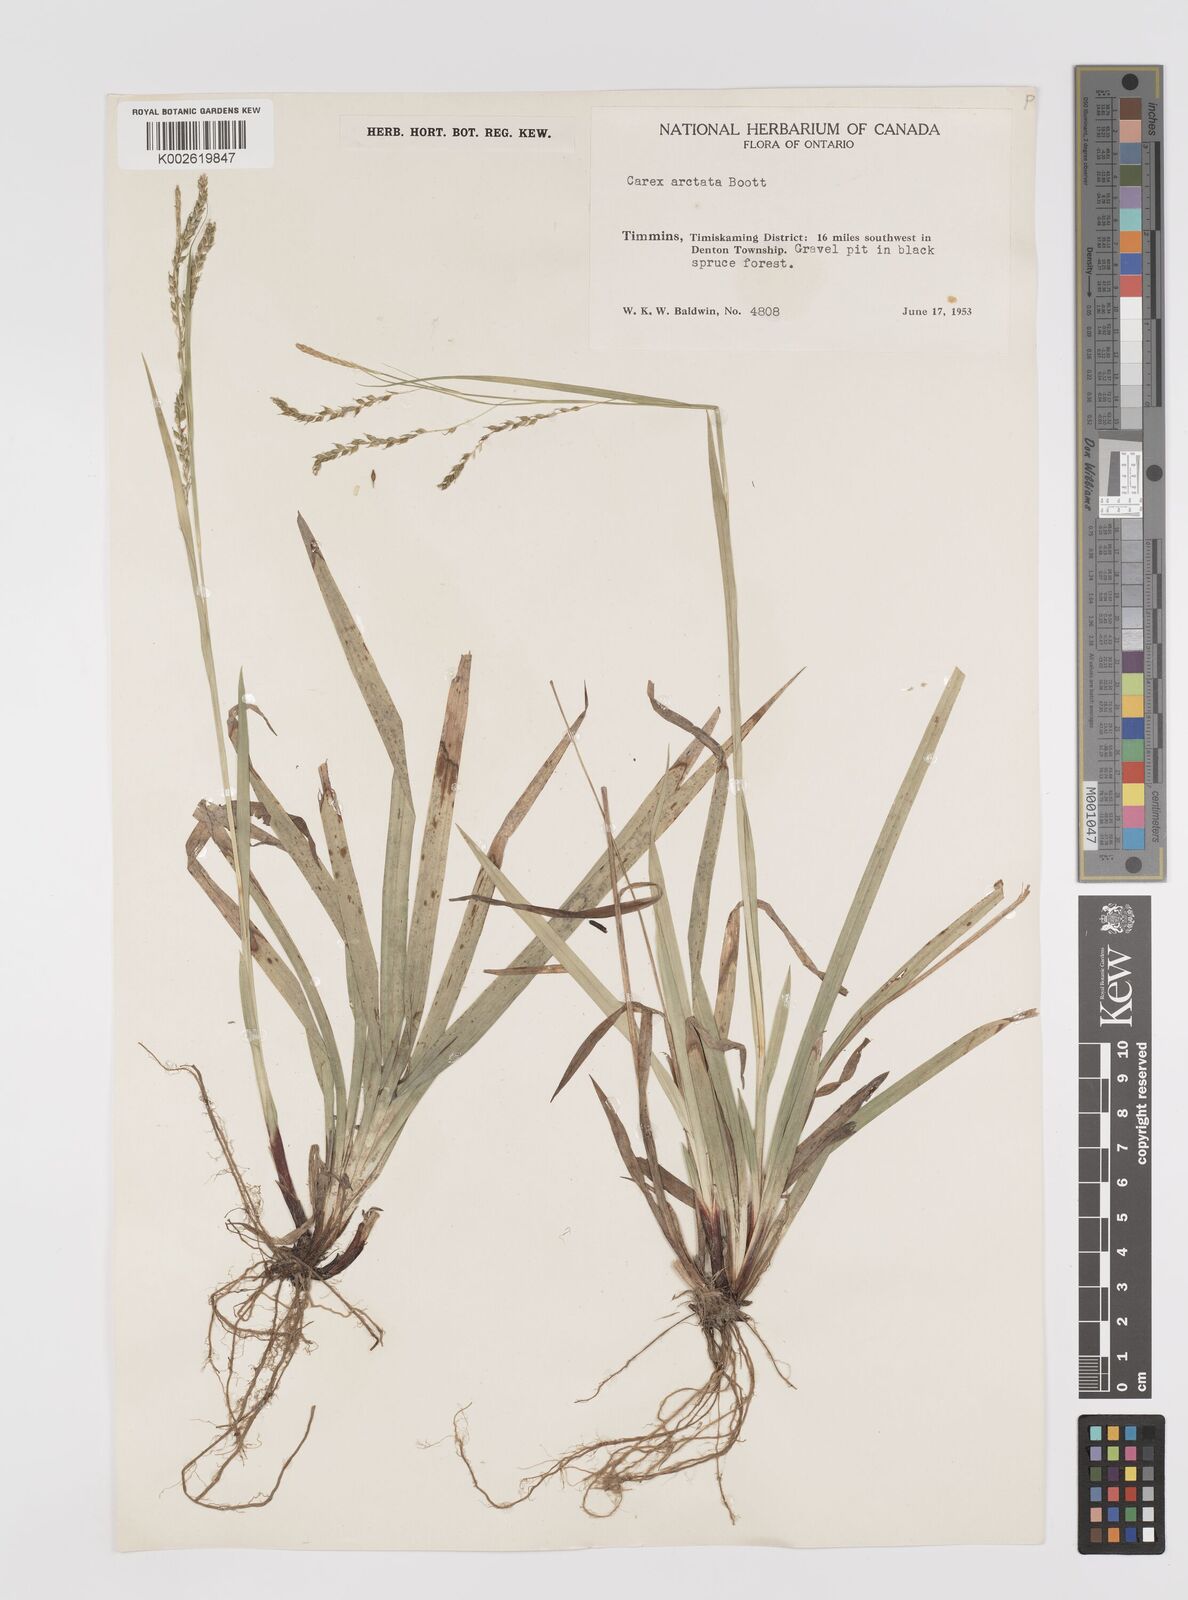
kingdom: Plantae
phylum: Tracheophyta
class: Liliopsida
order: Poales
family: Cyperaceae
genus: Carex
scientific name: Carex arctata
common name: Black sedge
